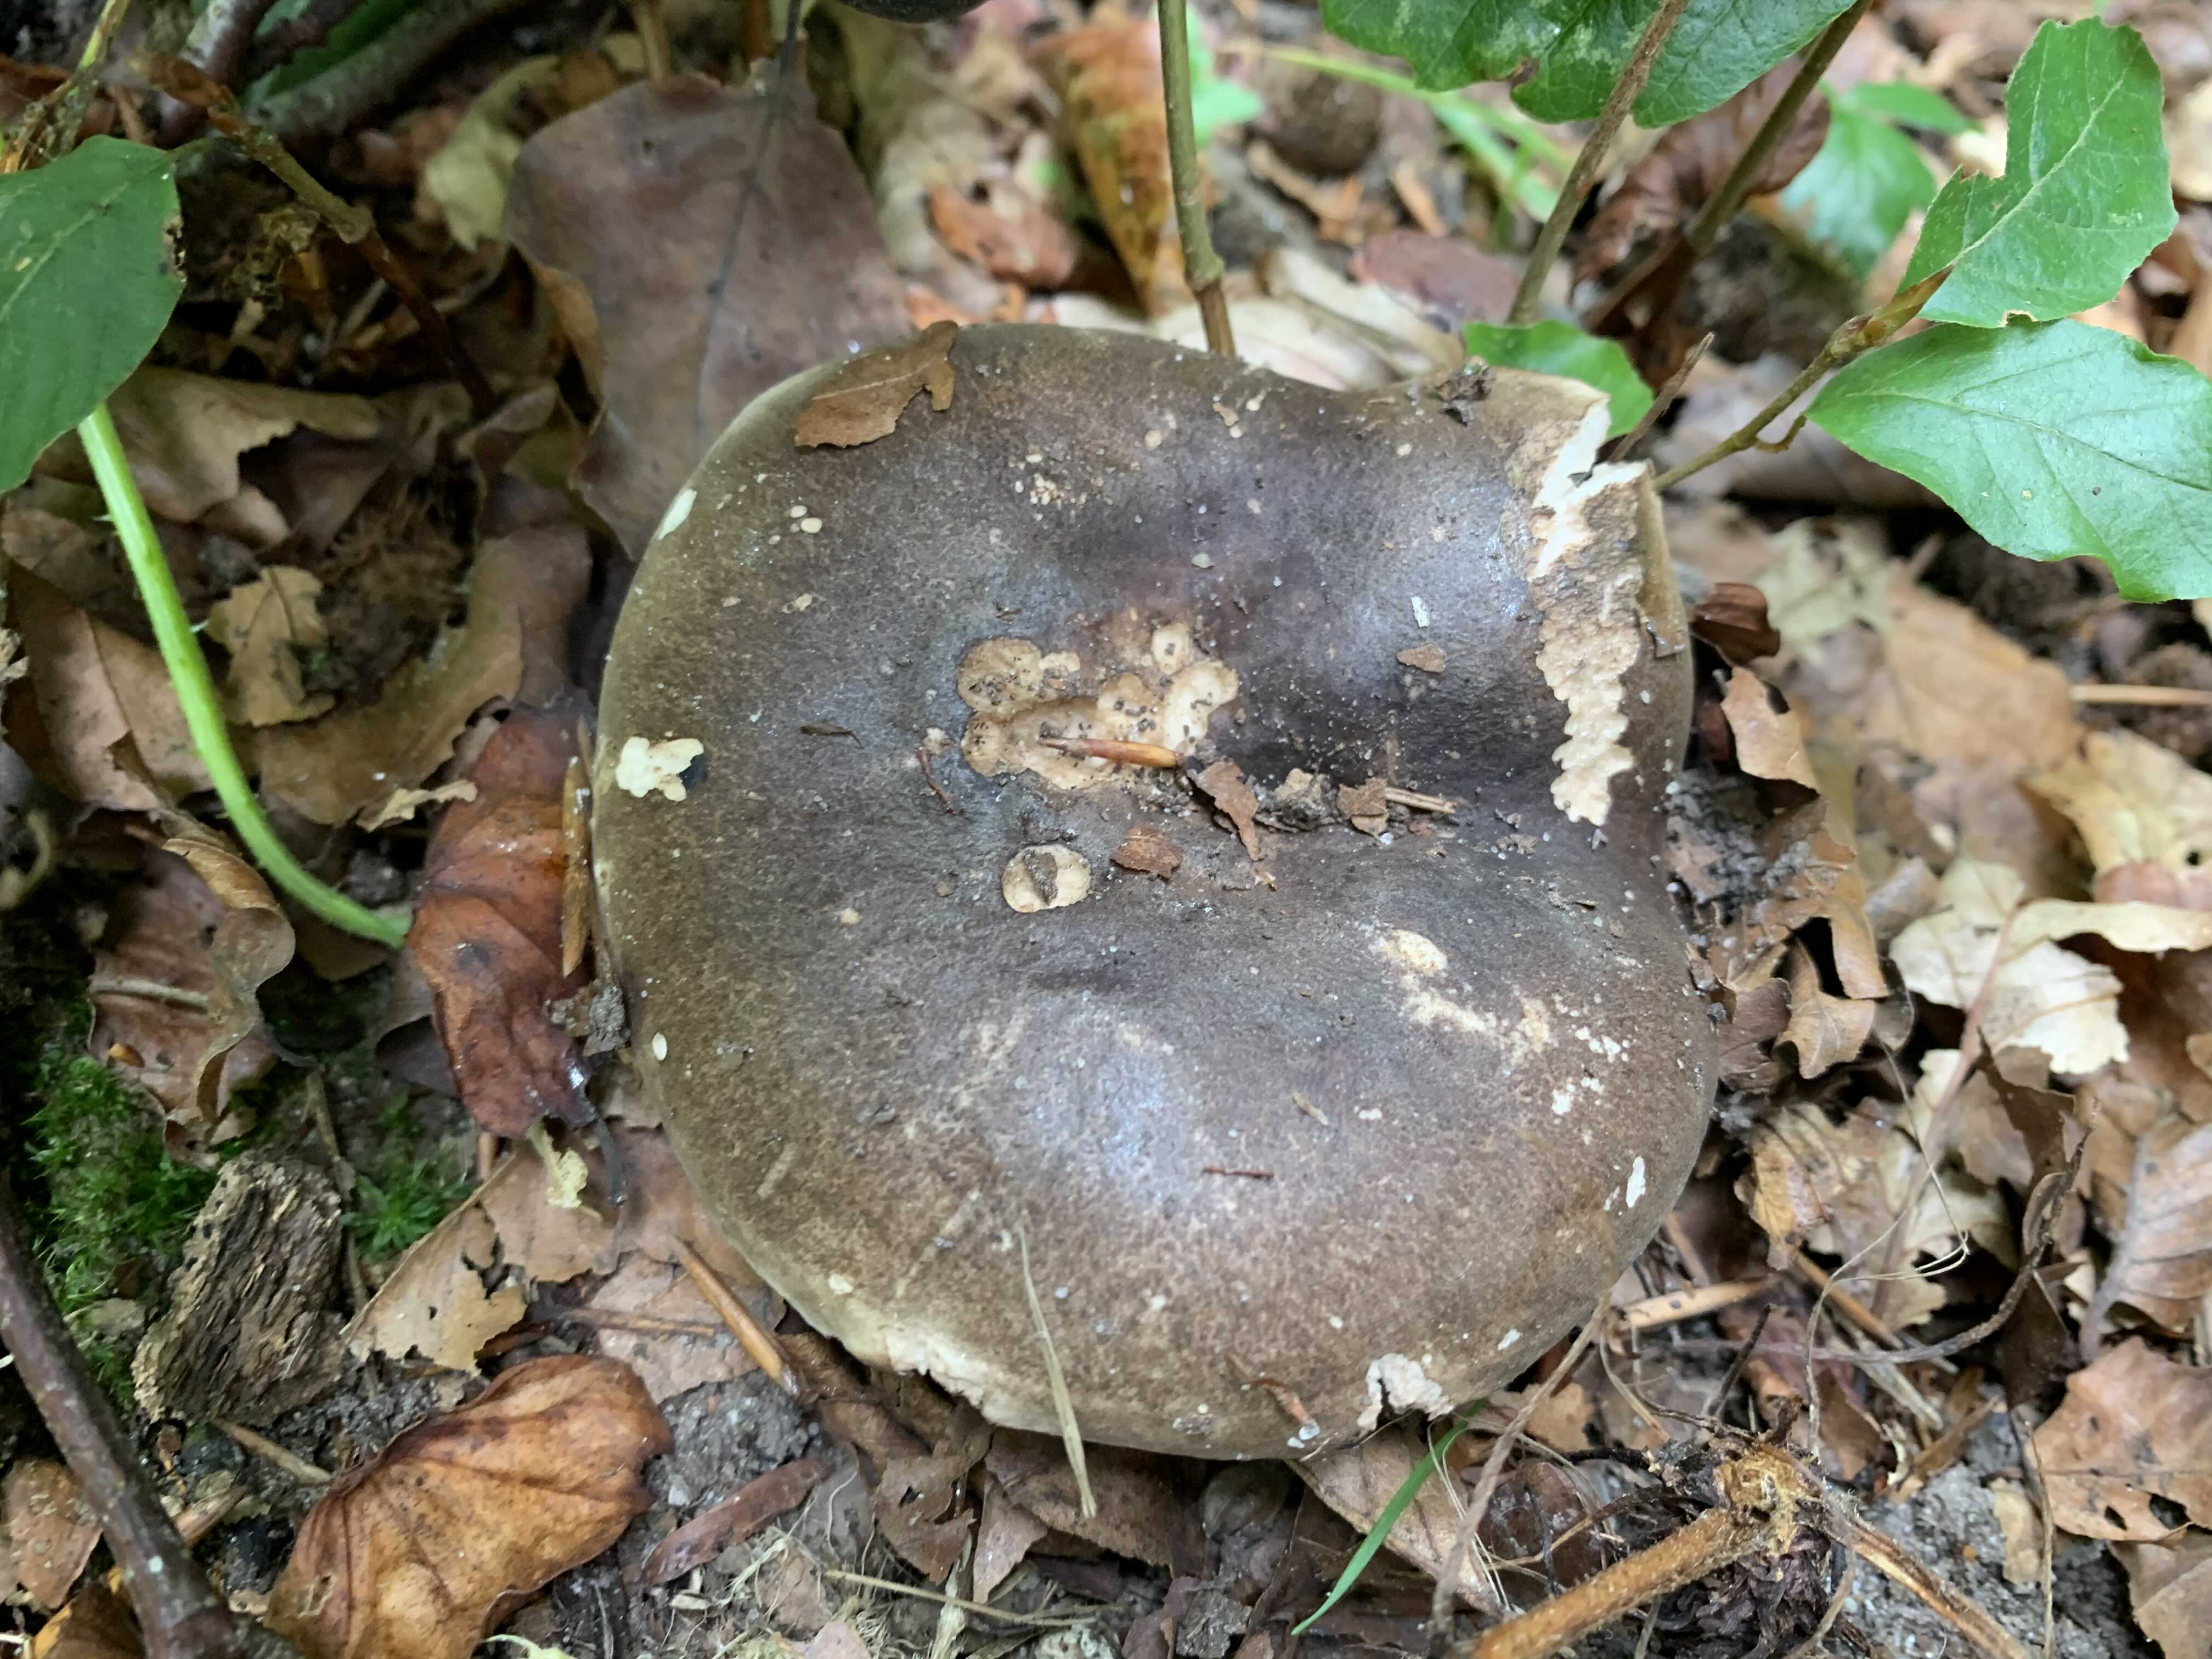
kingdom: Fungi
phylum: Basidiomycota
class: Agaricomycetes
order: Russulales
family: Russulaceae
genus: Russula
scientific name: Russula adusta
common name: sværtende skørhat
